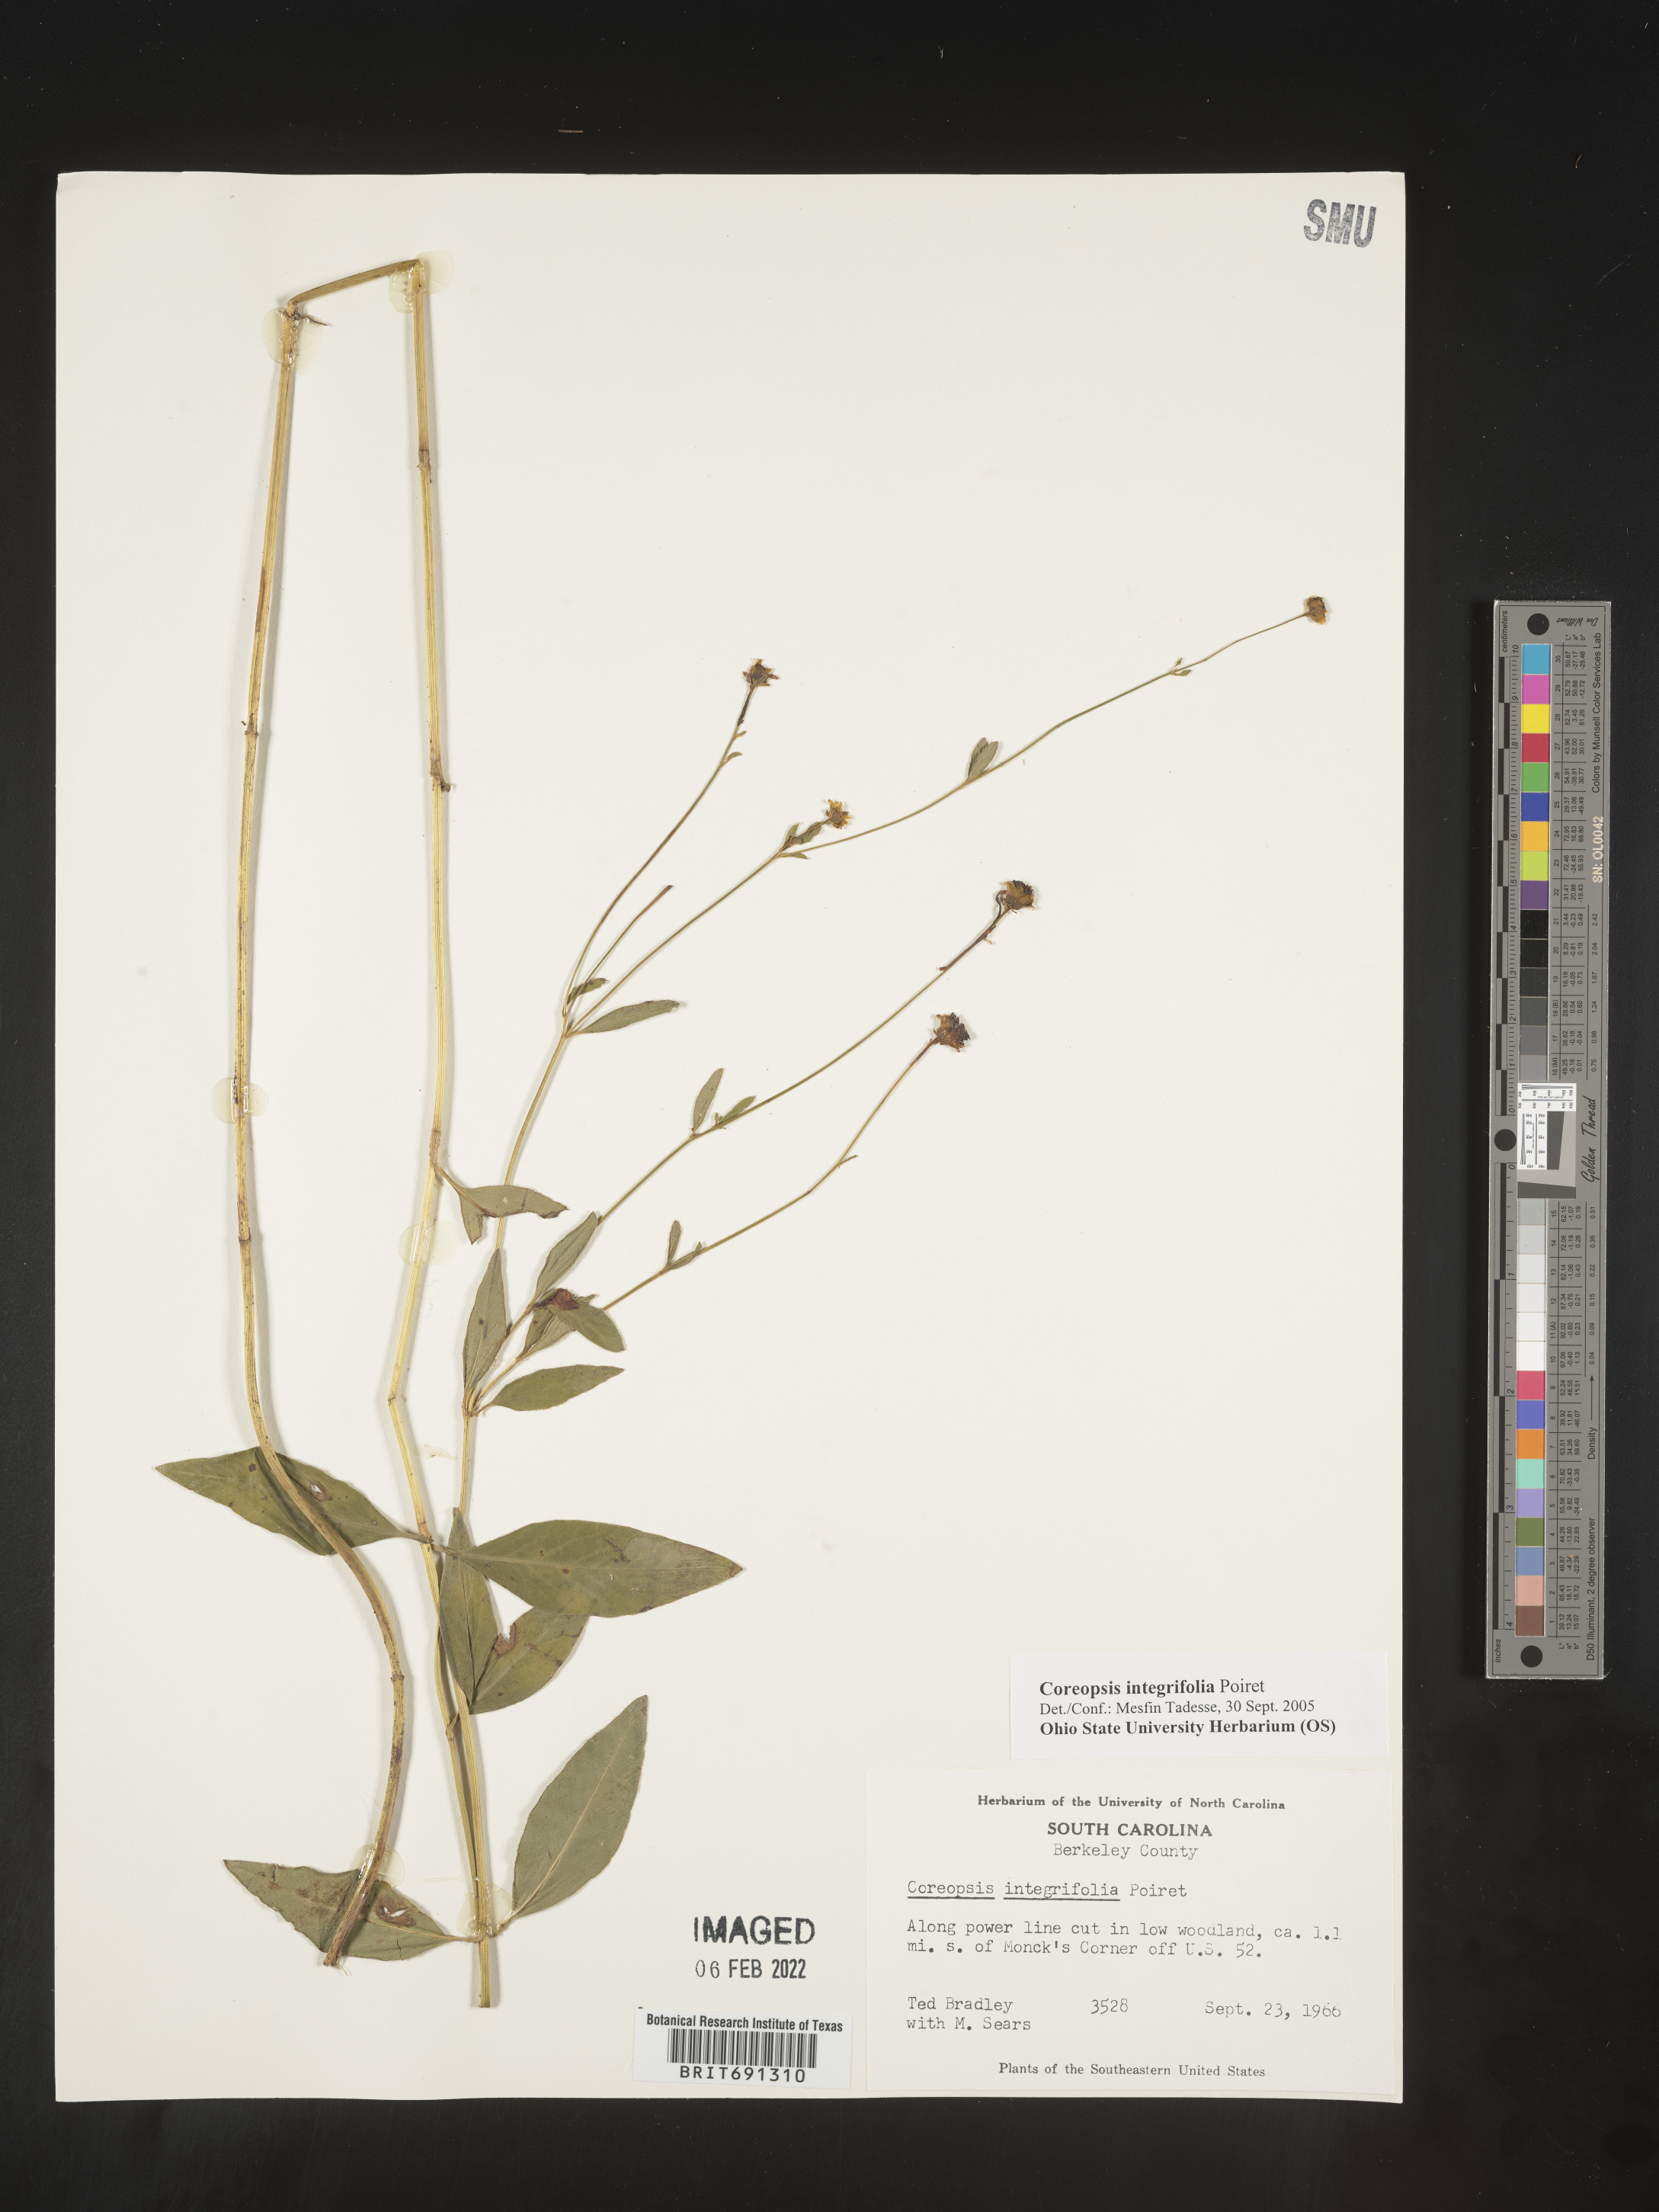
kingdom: Plantae
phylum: Tracheophyta
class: Magnoliopsida
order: Asterales
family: Asteraceae
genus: Coreopsis
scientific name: Coreopsis integrifolia
